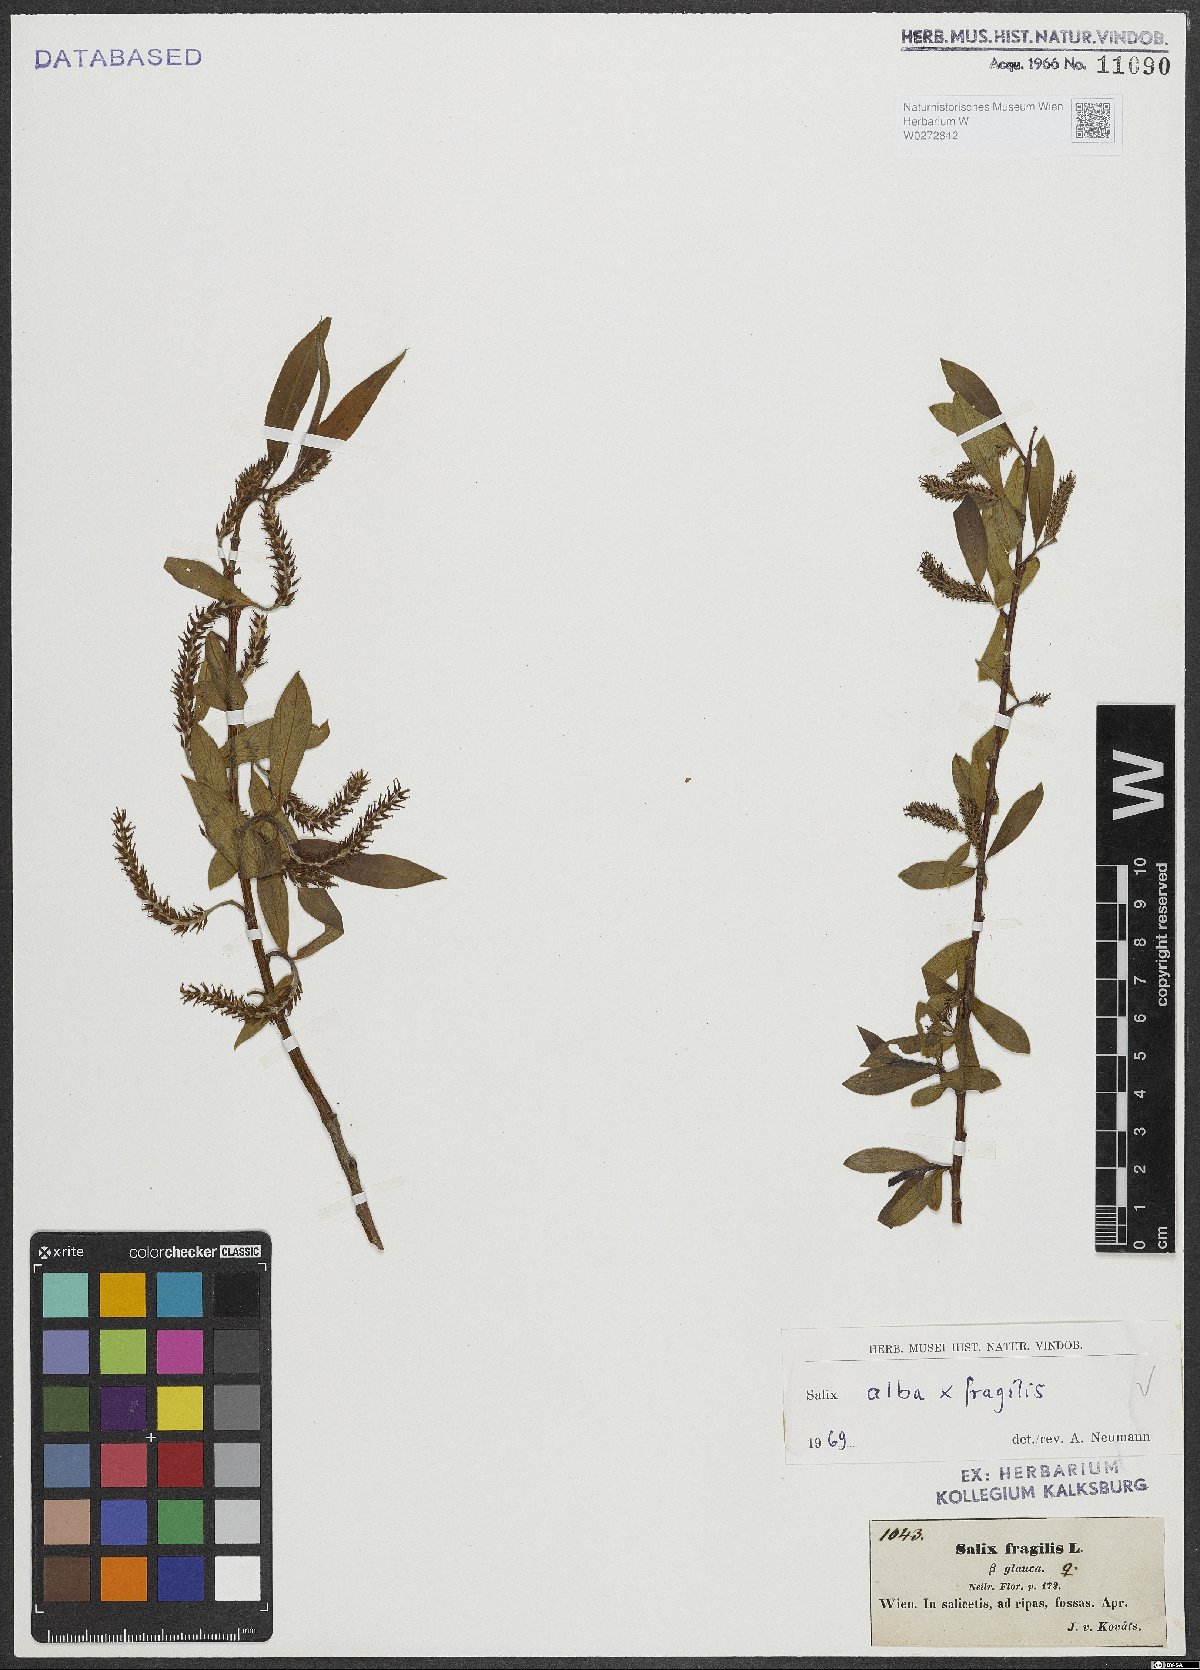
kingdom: Plantae
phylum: Tracheophyta
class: Magnoliopsida
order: Malpighiales
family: Salicaceae
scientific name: Salicaceae
